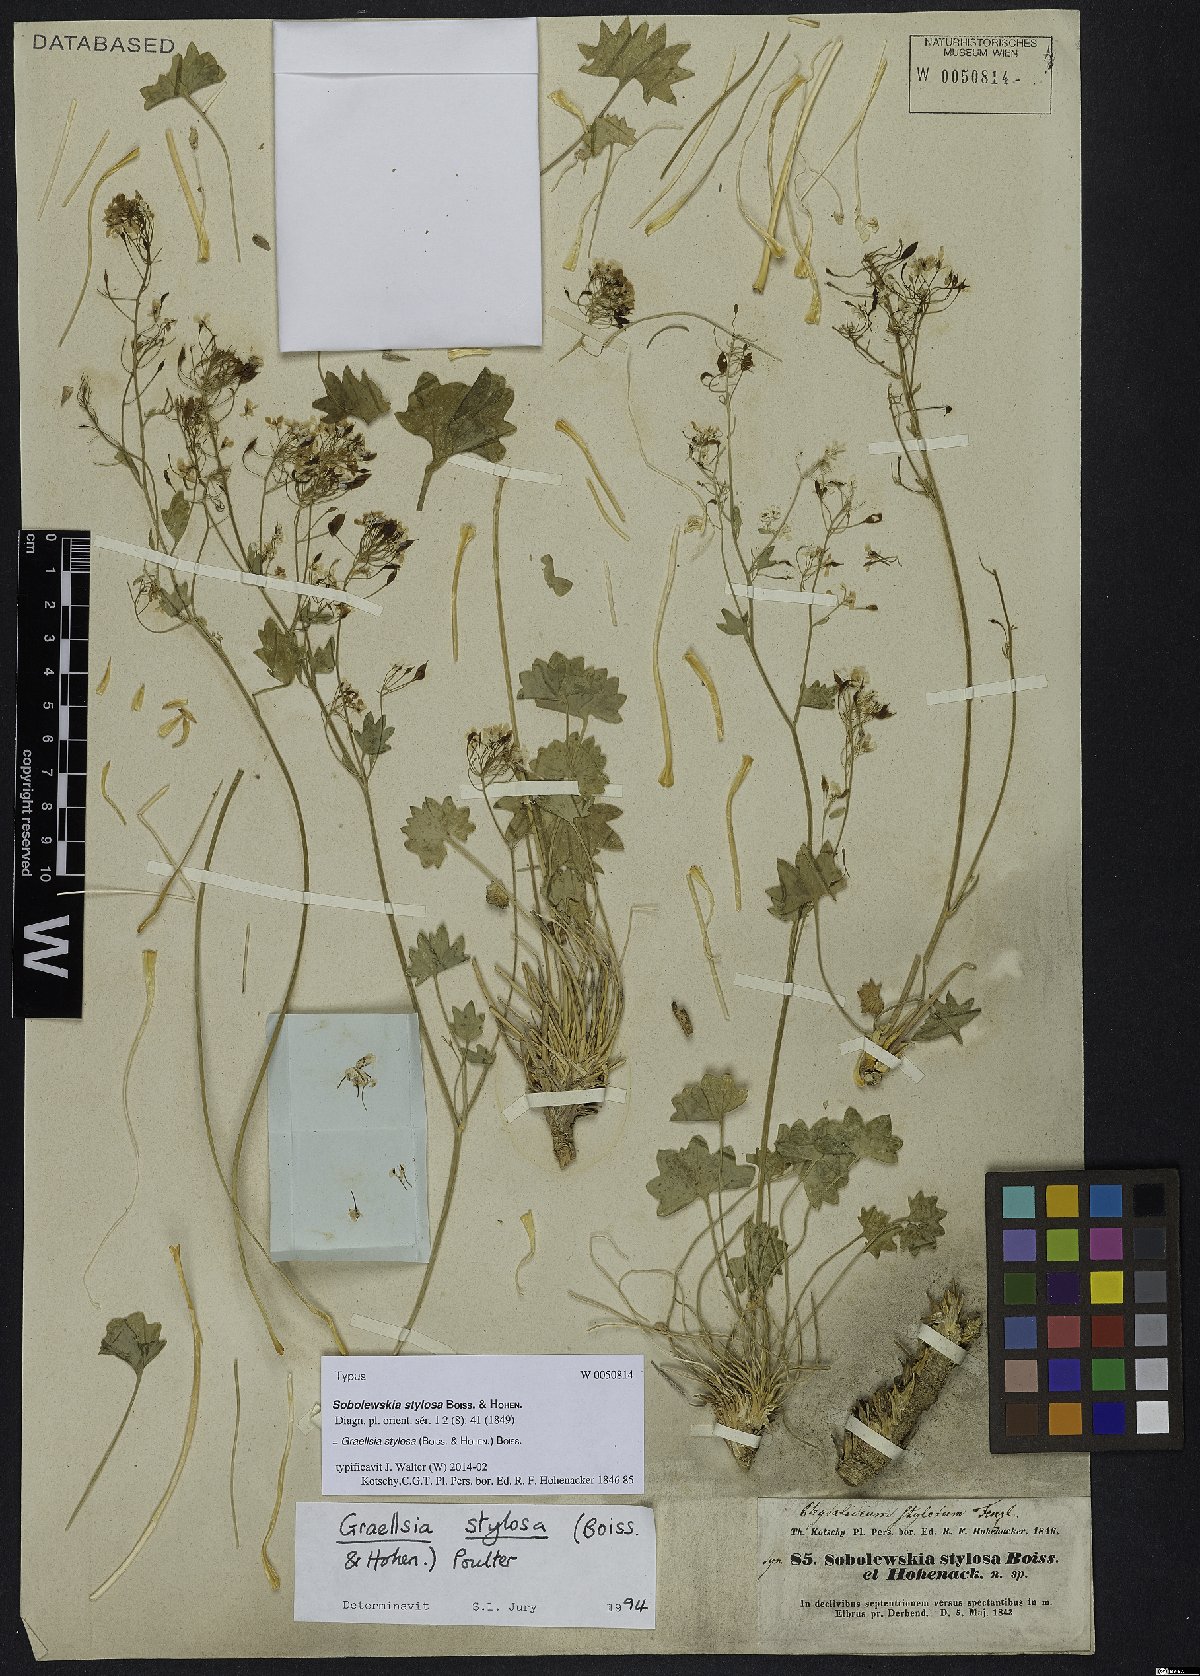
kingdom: Plantae
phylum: Tracheophyta
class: Magnoliopsida
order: Brassicales
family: Brassicaceae
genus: Graellsia
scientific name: Graellsia stylosa
